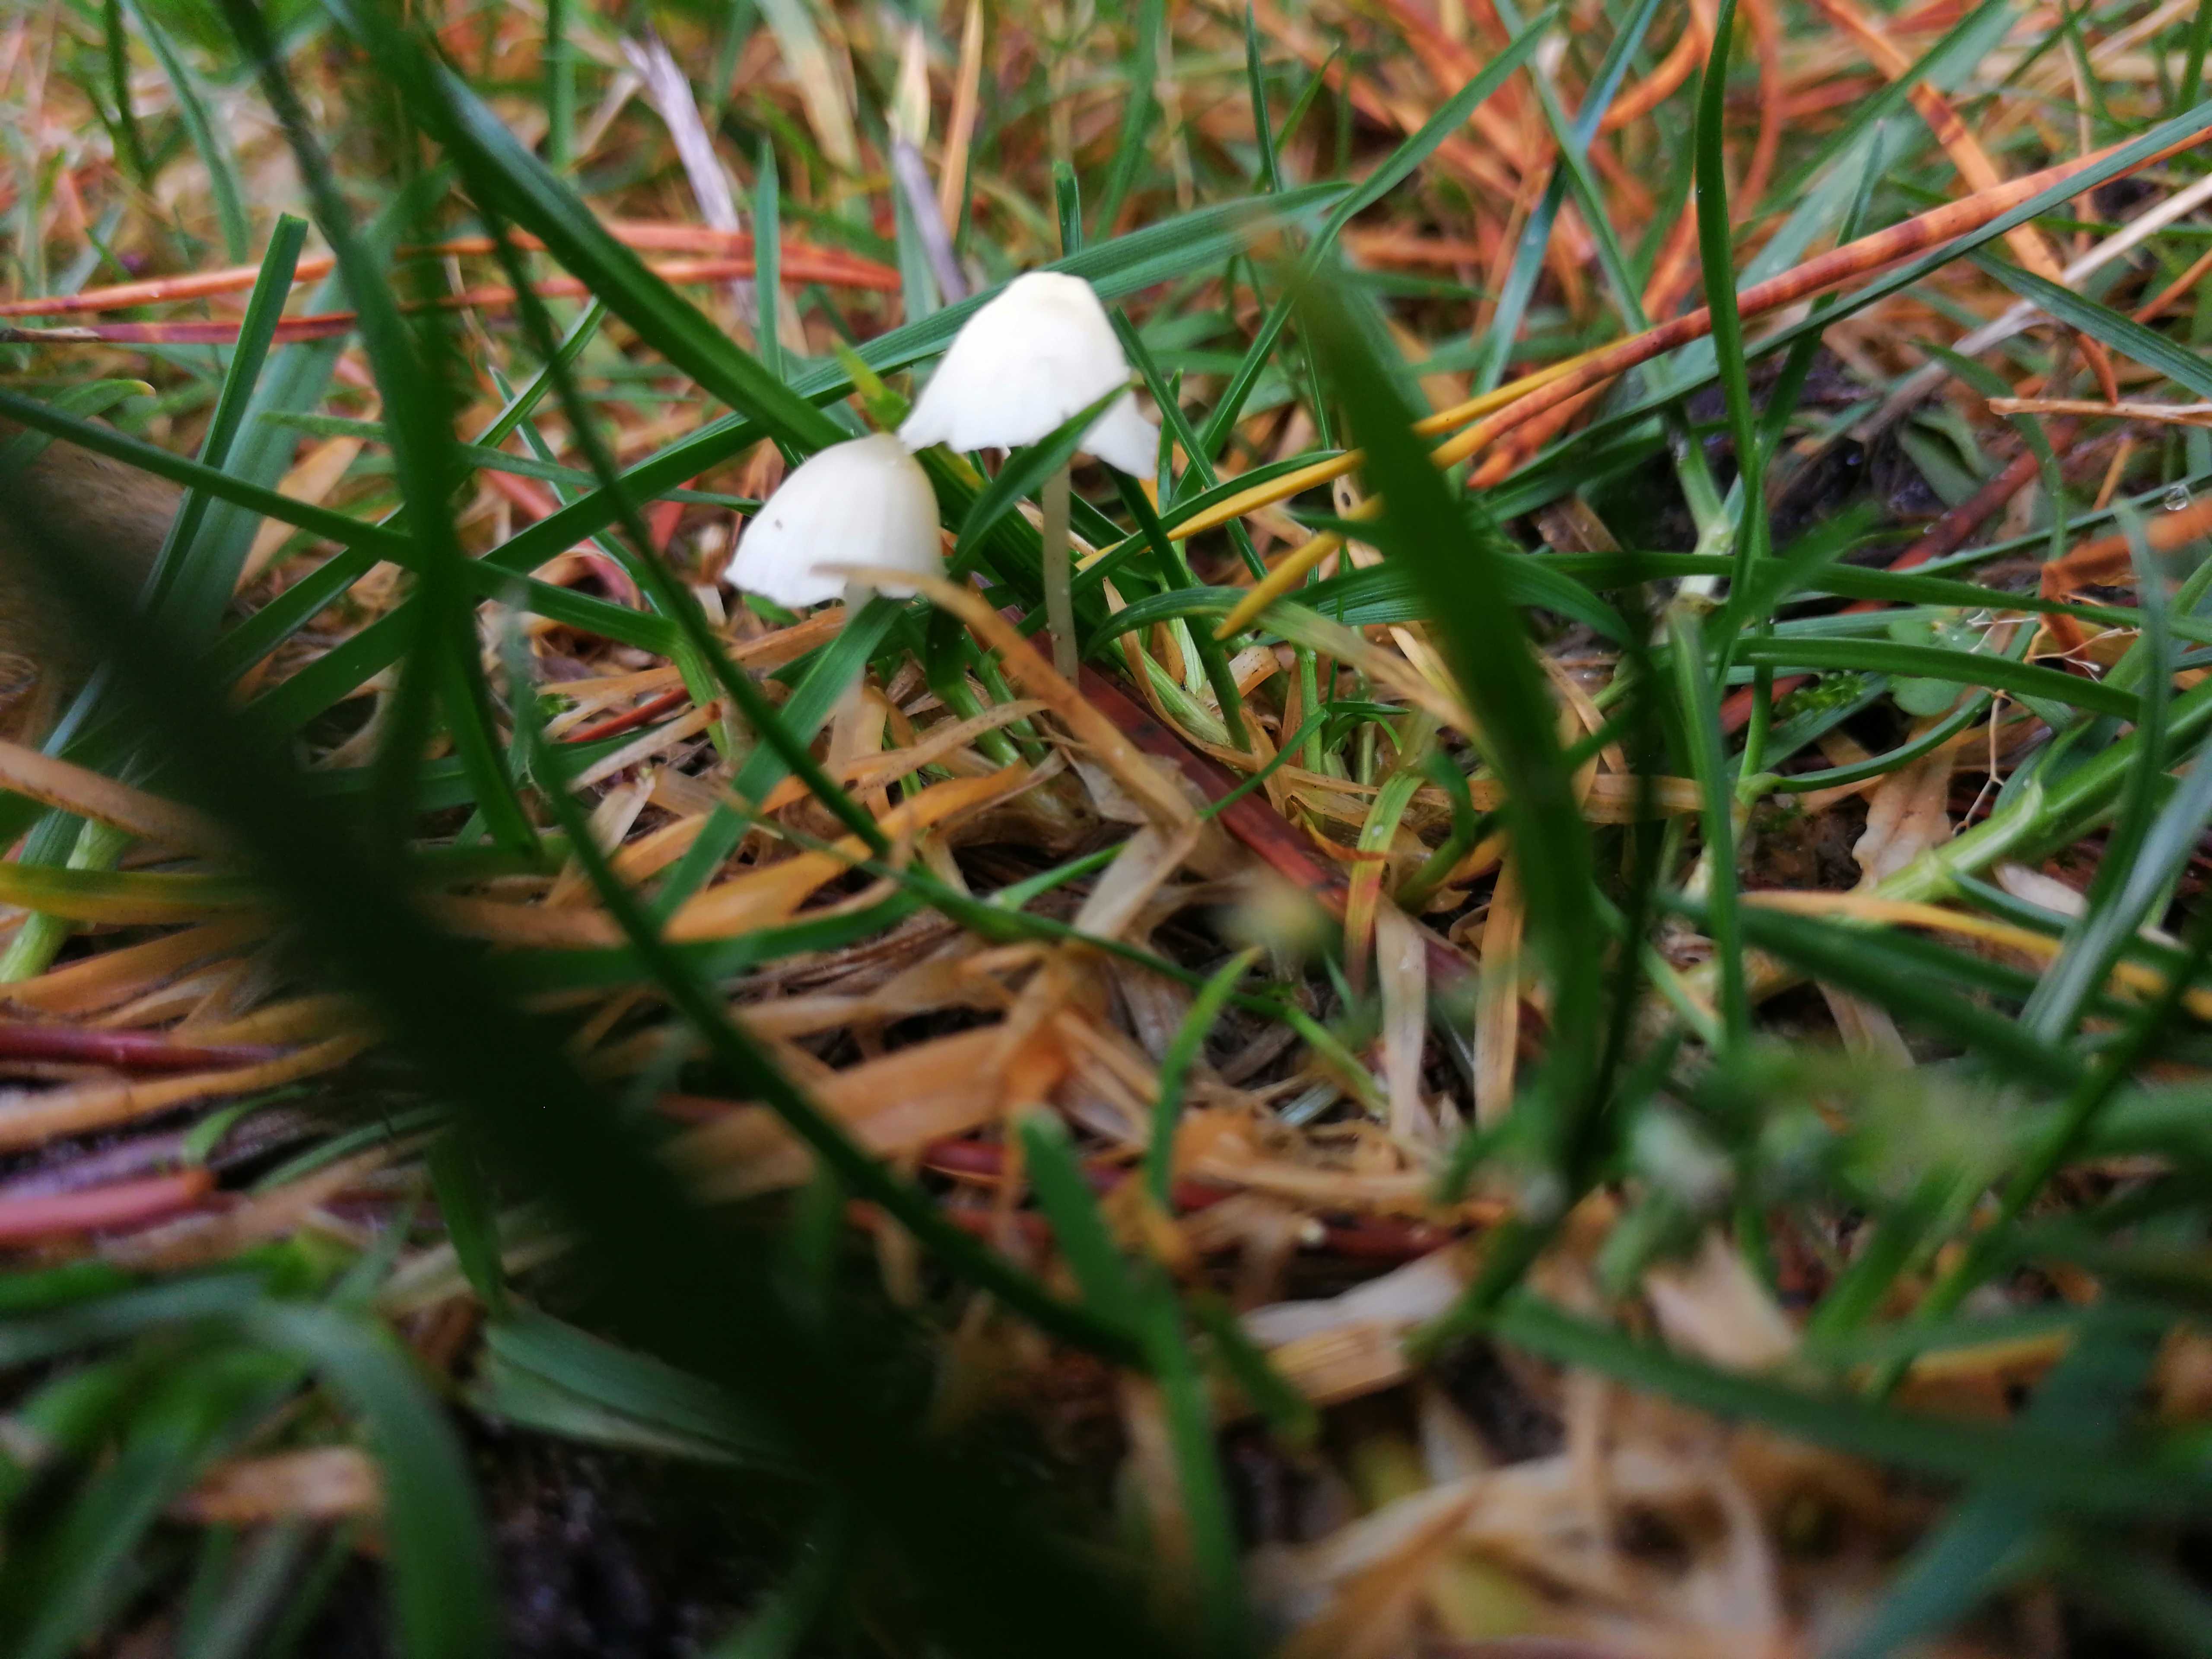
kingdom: Fungi
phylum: Basidiomycota
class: Agaricomycetes
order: Agaricales
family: Mycenaceae
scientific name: Mycenaceae
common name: huesvampfamilien
